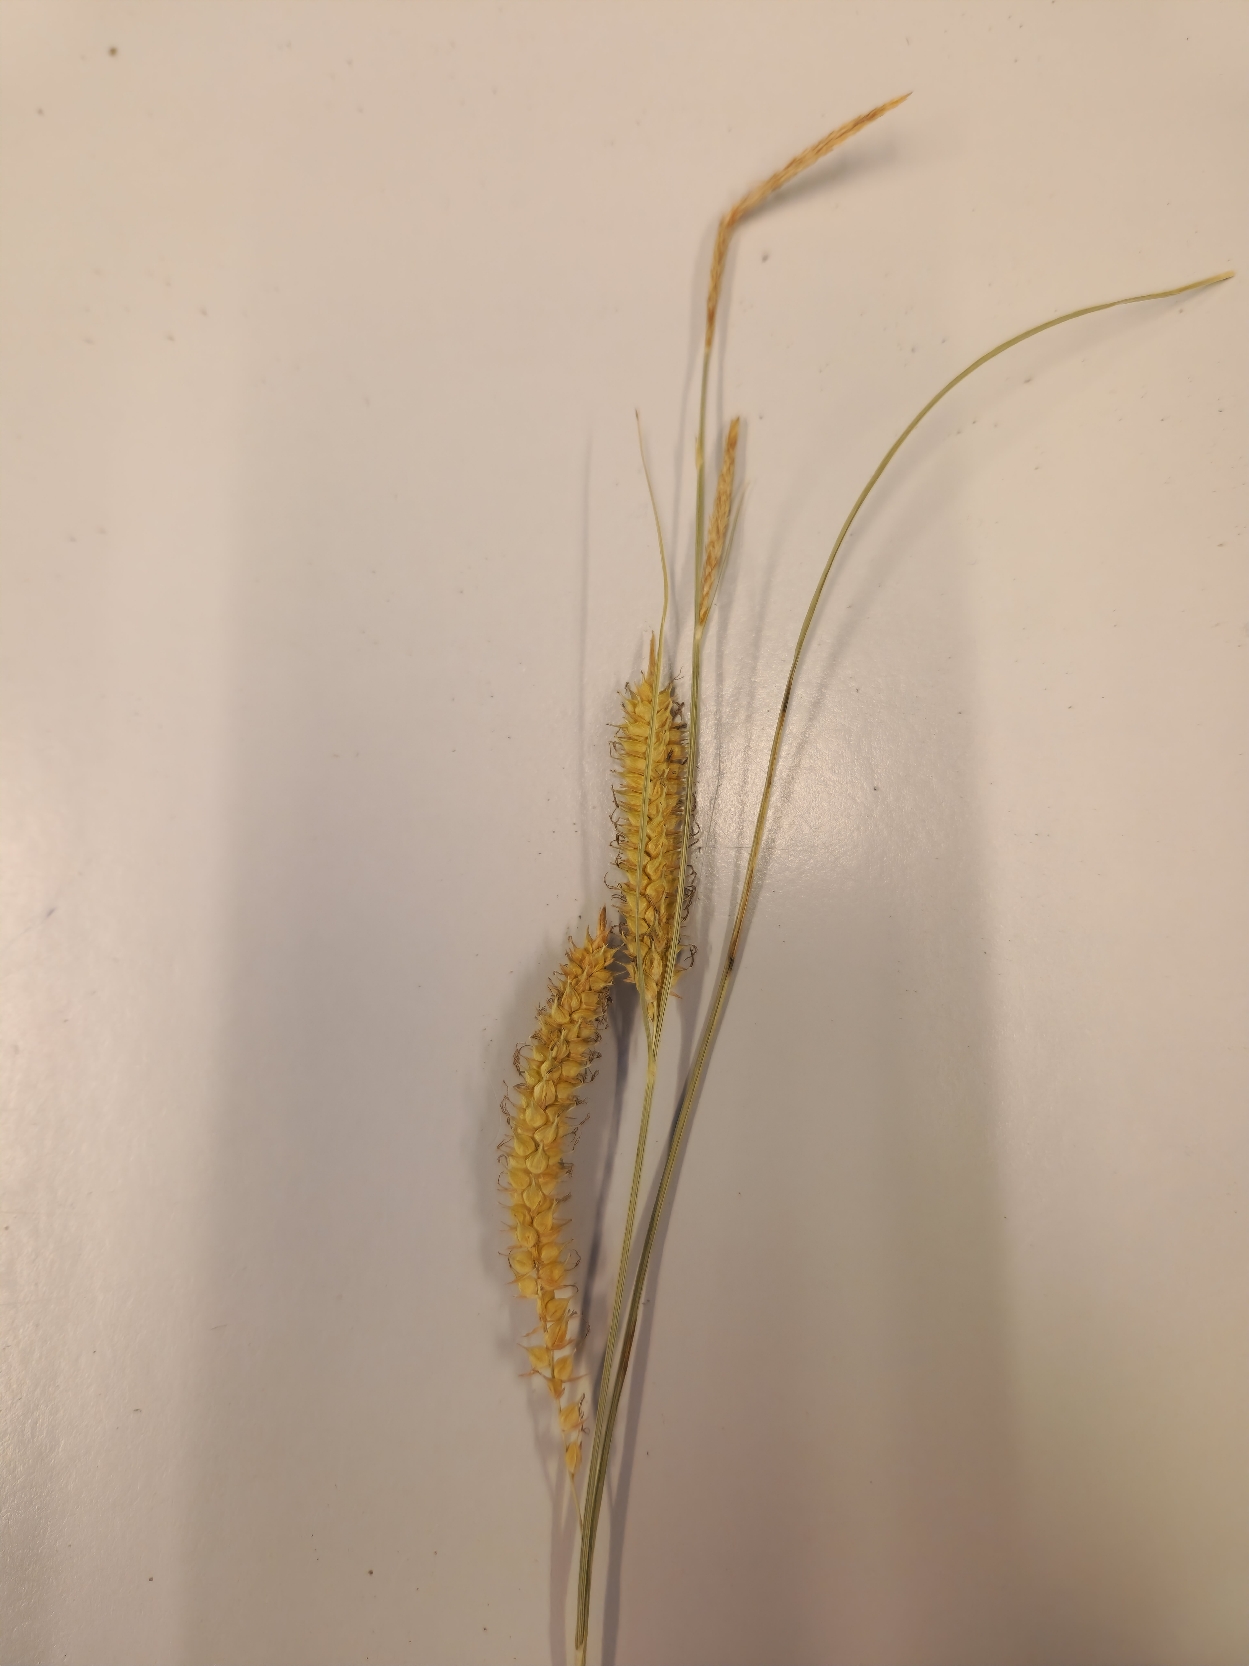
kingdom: Plantae
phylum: Tracheophyta
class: Liliopsida
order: Poales
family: Cyperaceae
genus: Carex
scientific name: Carex rostrata
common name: Næb-star
